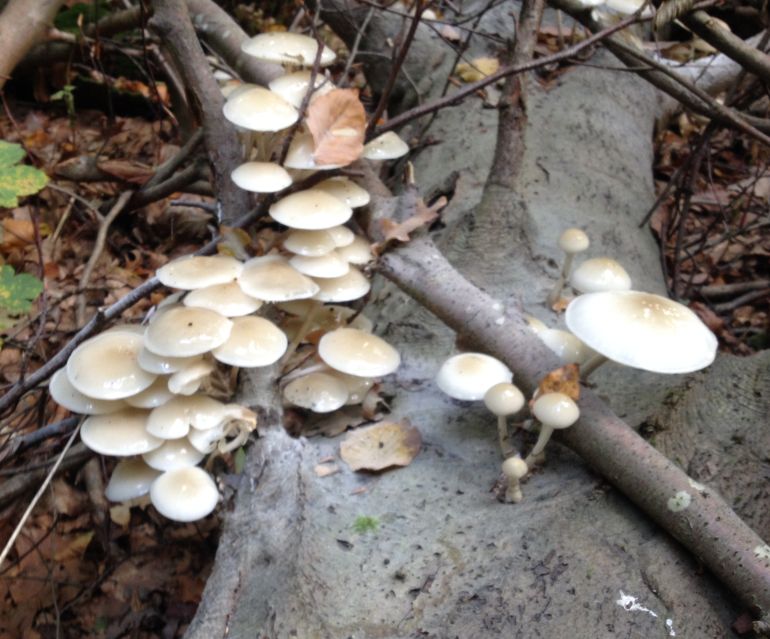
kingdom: Fungi
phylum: Basidiomycota
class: Agaricomycetes
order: Agaricales
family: Physalacriaceae
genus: Mucidula
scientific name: Mucidula mucida
